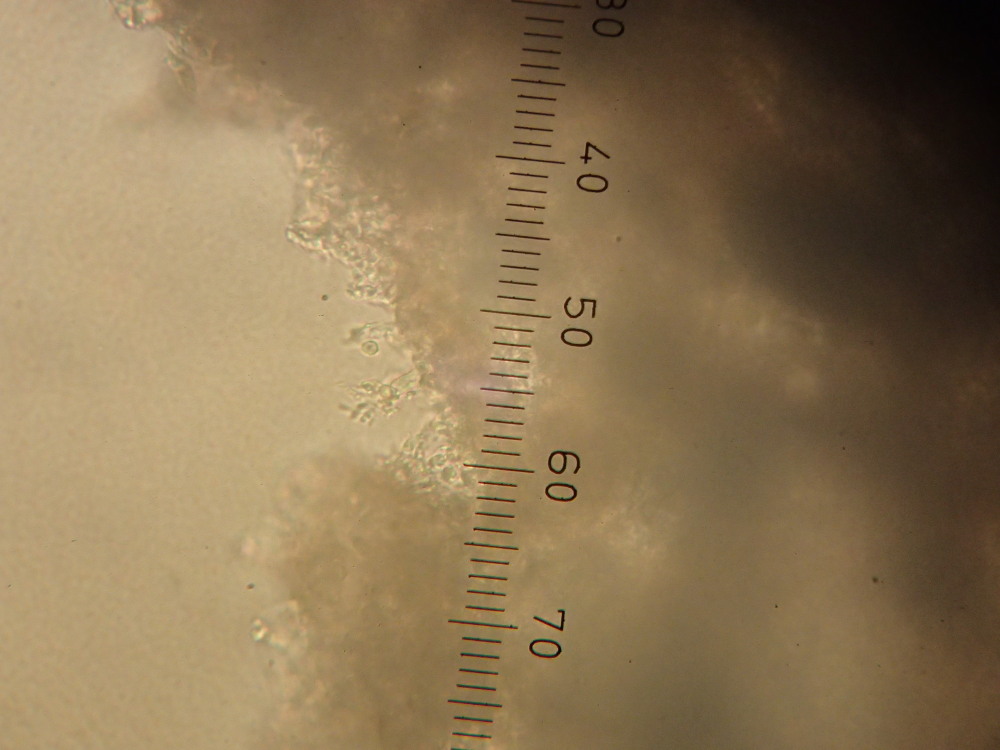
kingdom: Fungi
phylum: Basidiomycota
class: Exobasidiomycetes
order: Exobasidiales
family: Exobasidiaceae
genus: Exobasidium
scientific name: Exobasidium vaccinii
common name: tyttebærblad-bøllesvamp
